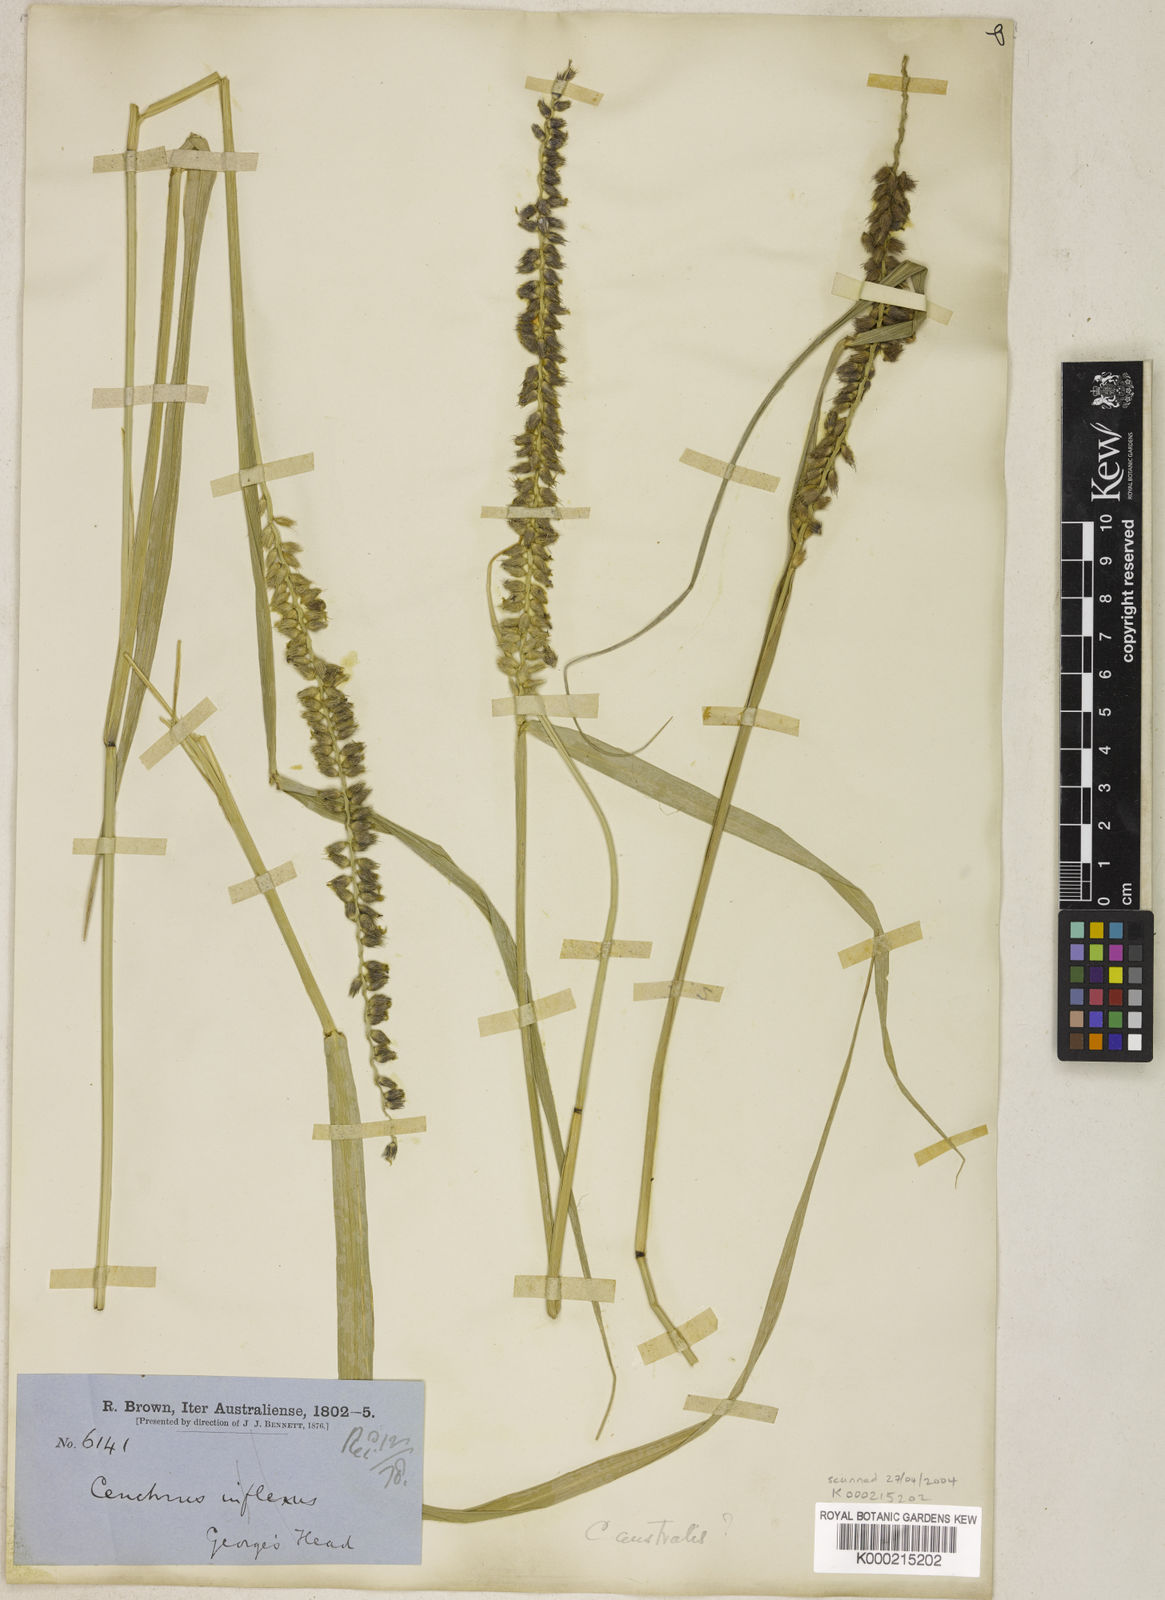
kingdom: Plantae
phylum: Tracheophyta
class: Liliopsida
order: Poales
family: Poaceae
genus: Cenchrus
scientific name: Cenchrus caliculatus
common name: Large bur grass
